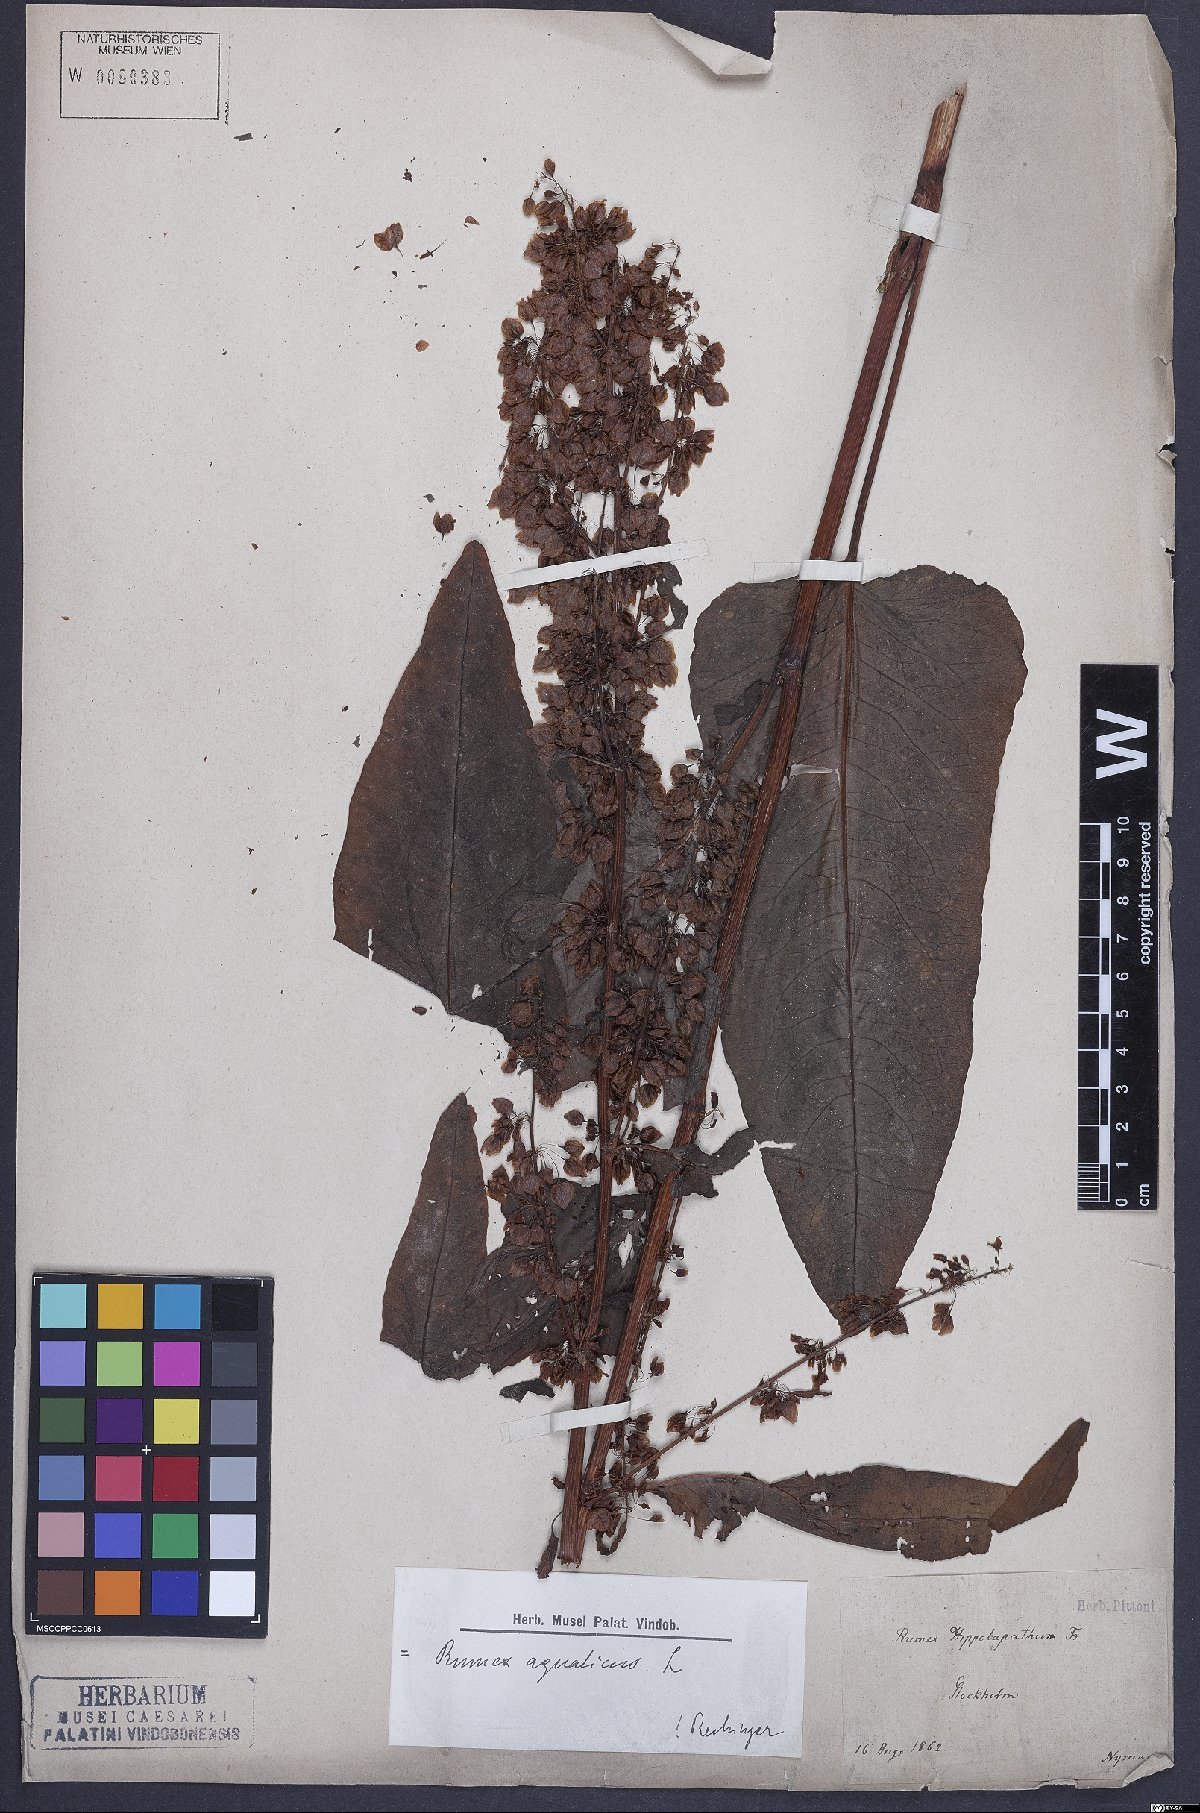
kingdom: Plantae
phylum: Tracheophyta
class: Magnoliopsida
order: Caryophyllales
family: Polygonaceae
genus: Rumex
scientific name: Rumex aquaticus
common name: Scottish dock
